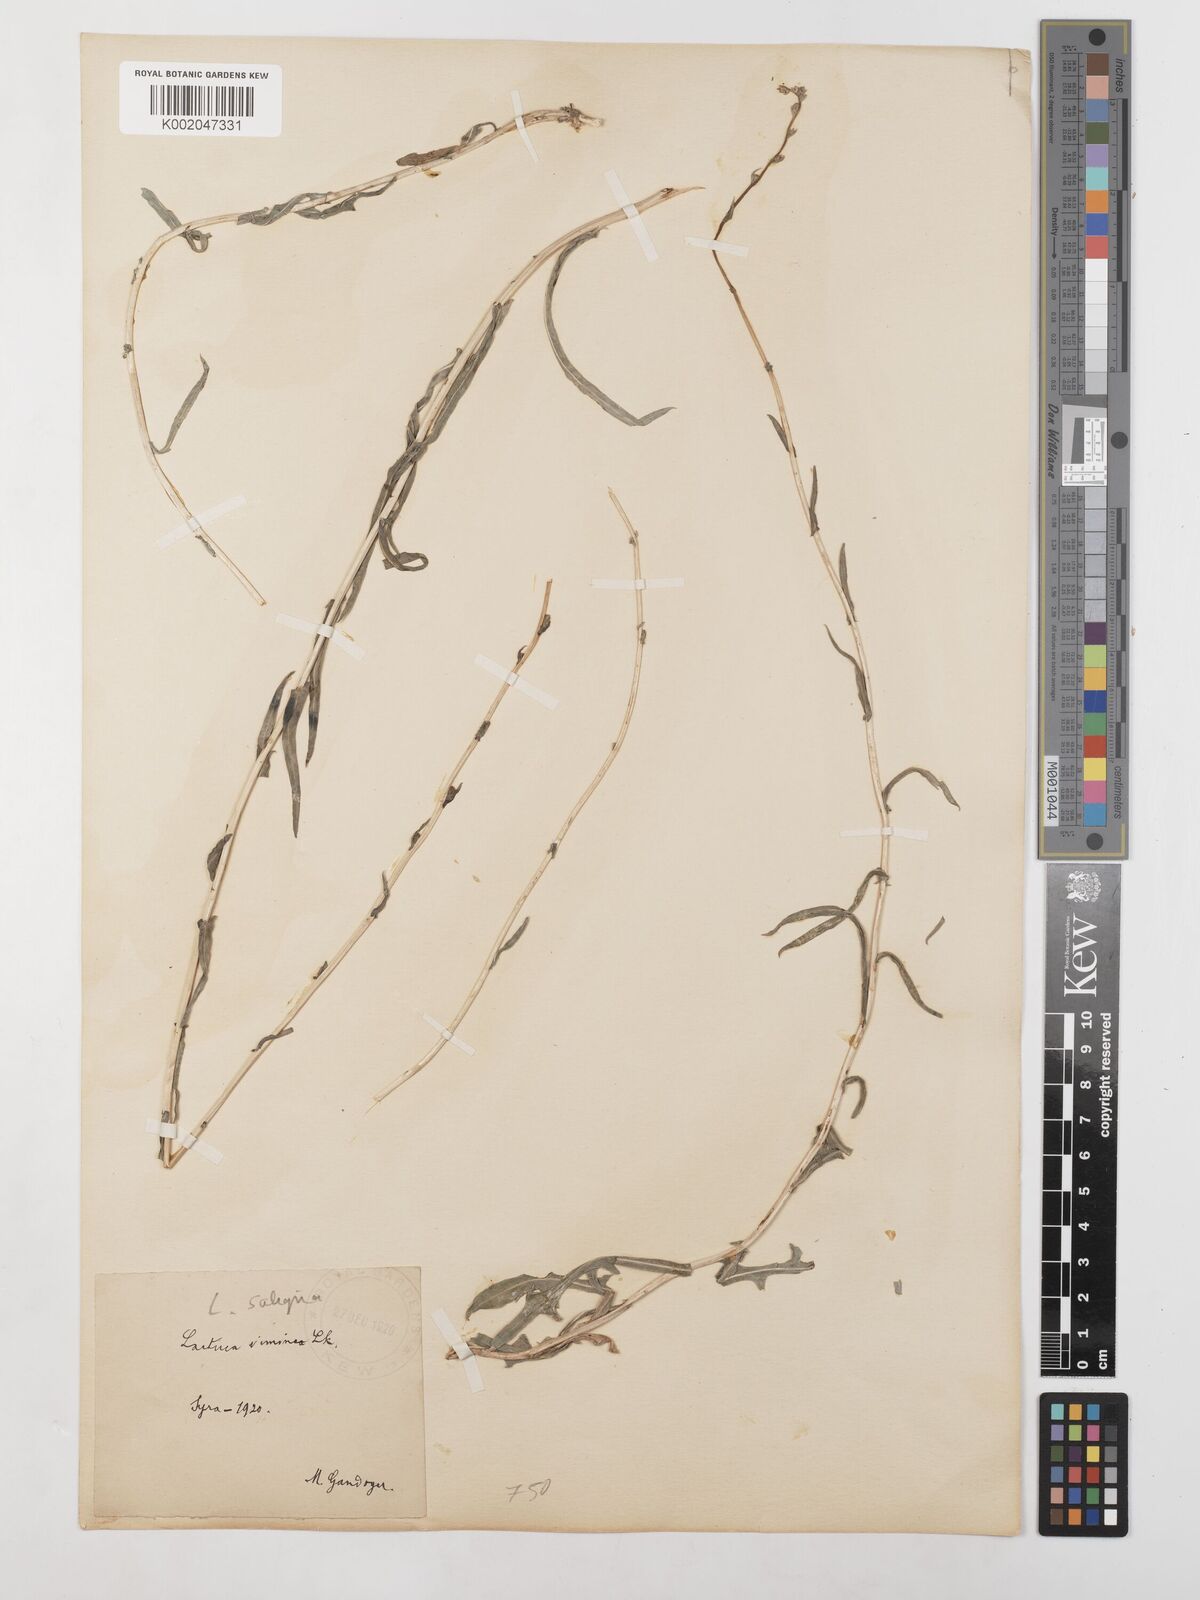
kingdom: Plantae
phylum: Tracheophyta
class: Magnoliopsida
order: Asterales
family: Asteraceae
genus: Lactuca
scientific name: Lactuca saligna
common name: Wild lettuce
